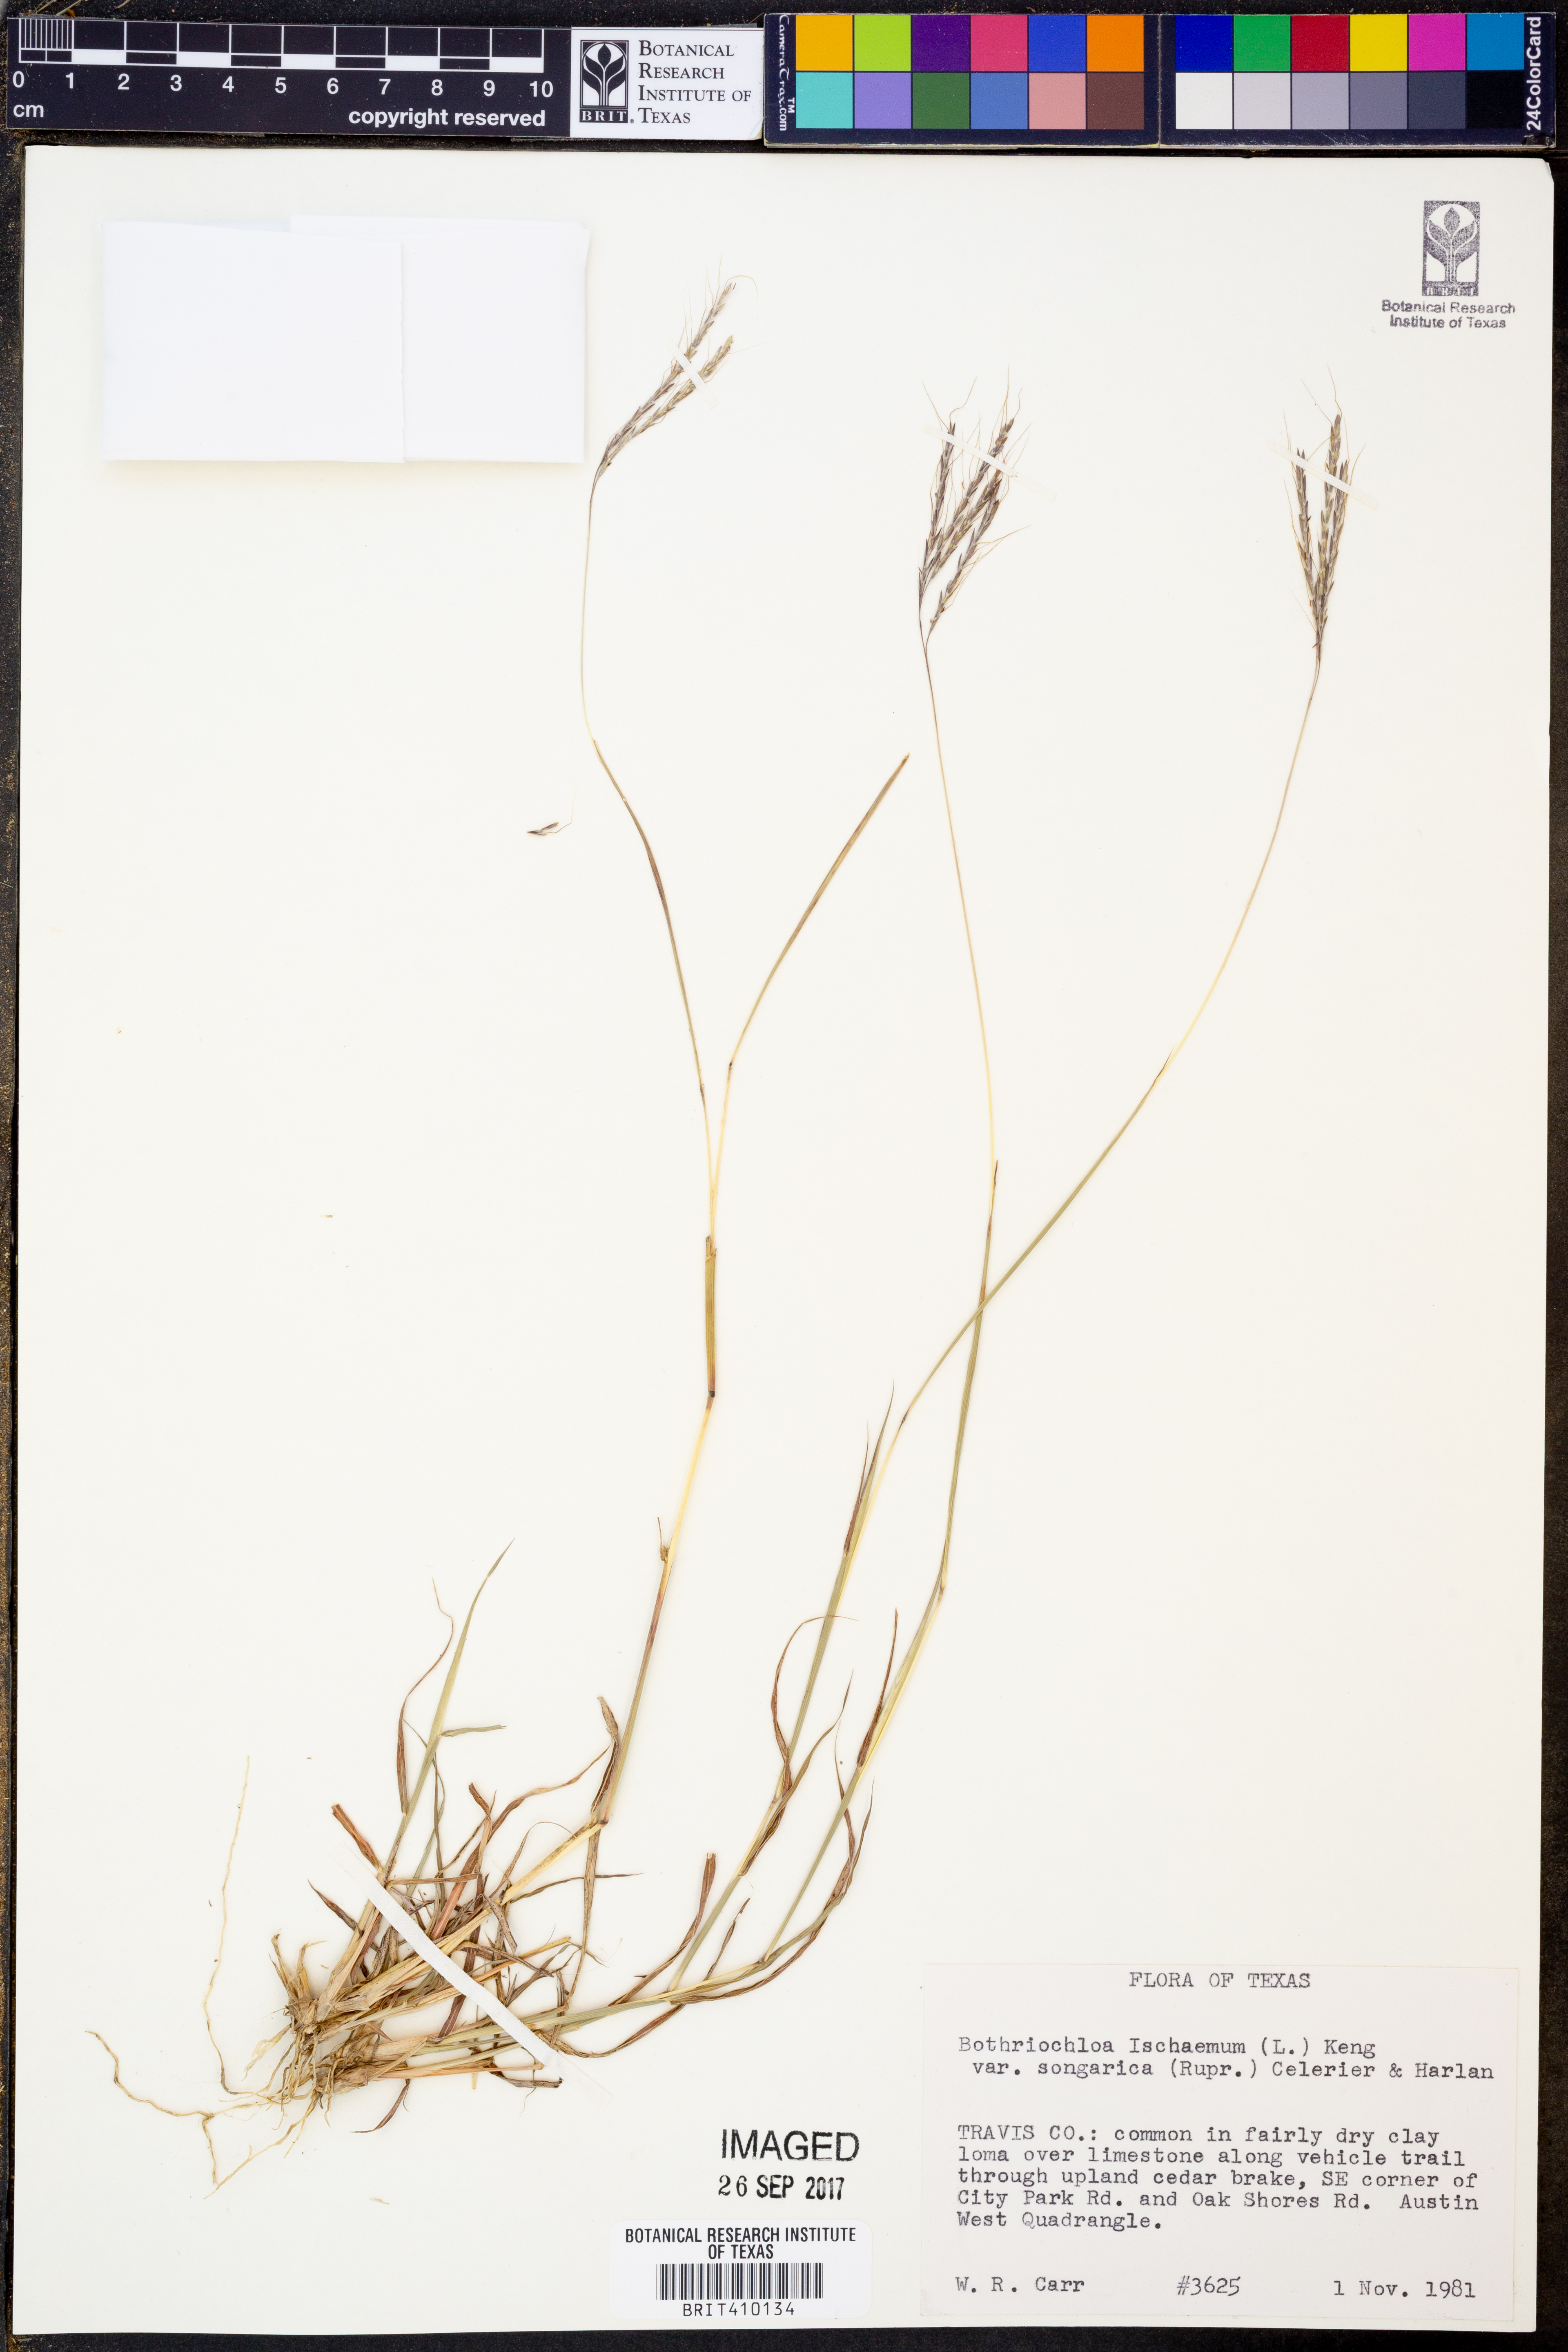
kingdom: Plantae
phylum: Tracheophyta
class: Liliopsida
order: Poales
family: Poaceae
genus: Bothriochloa
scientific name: Bothriochloa ischaemum
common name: Yellow bluestem
